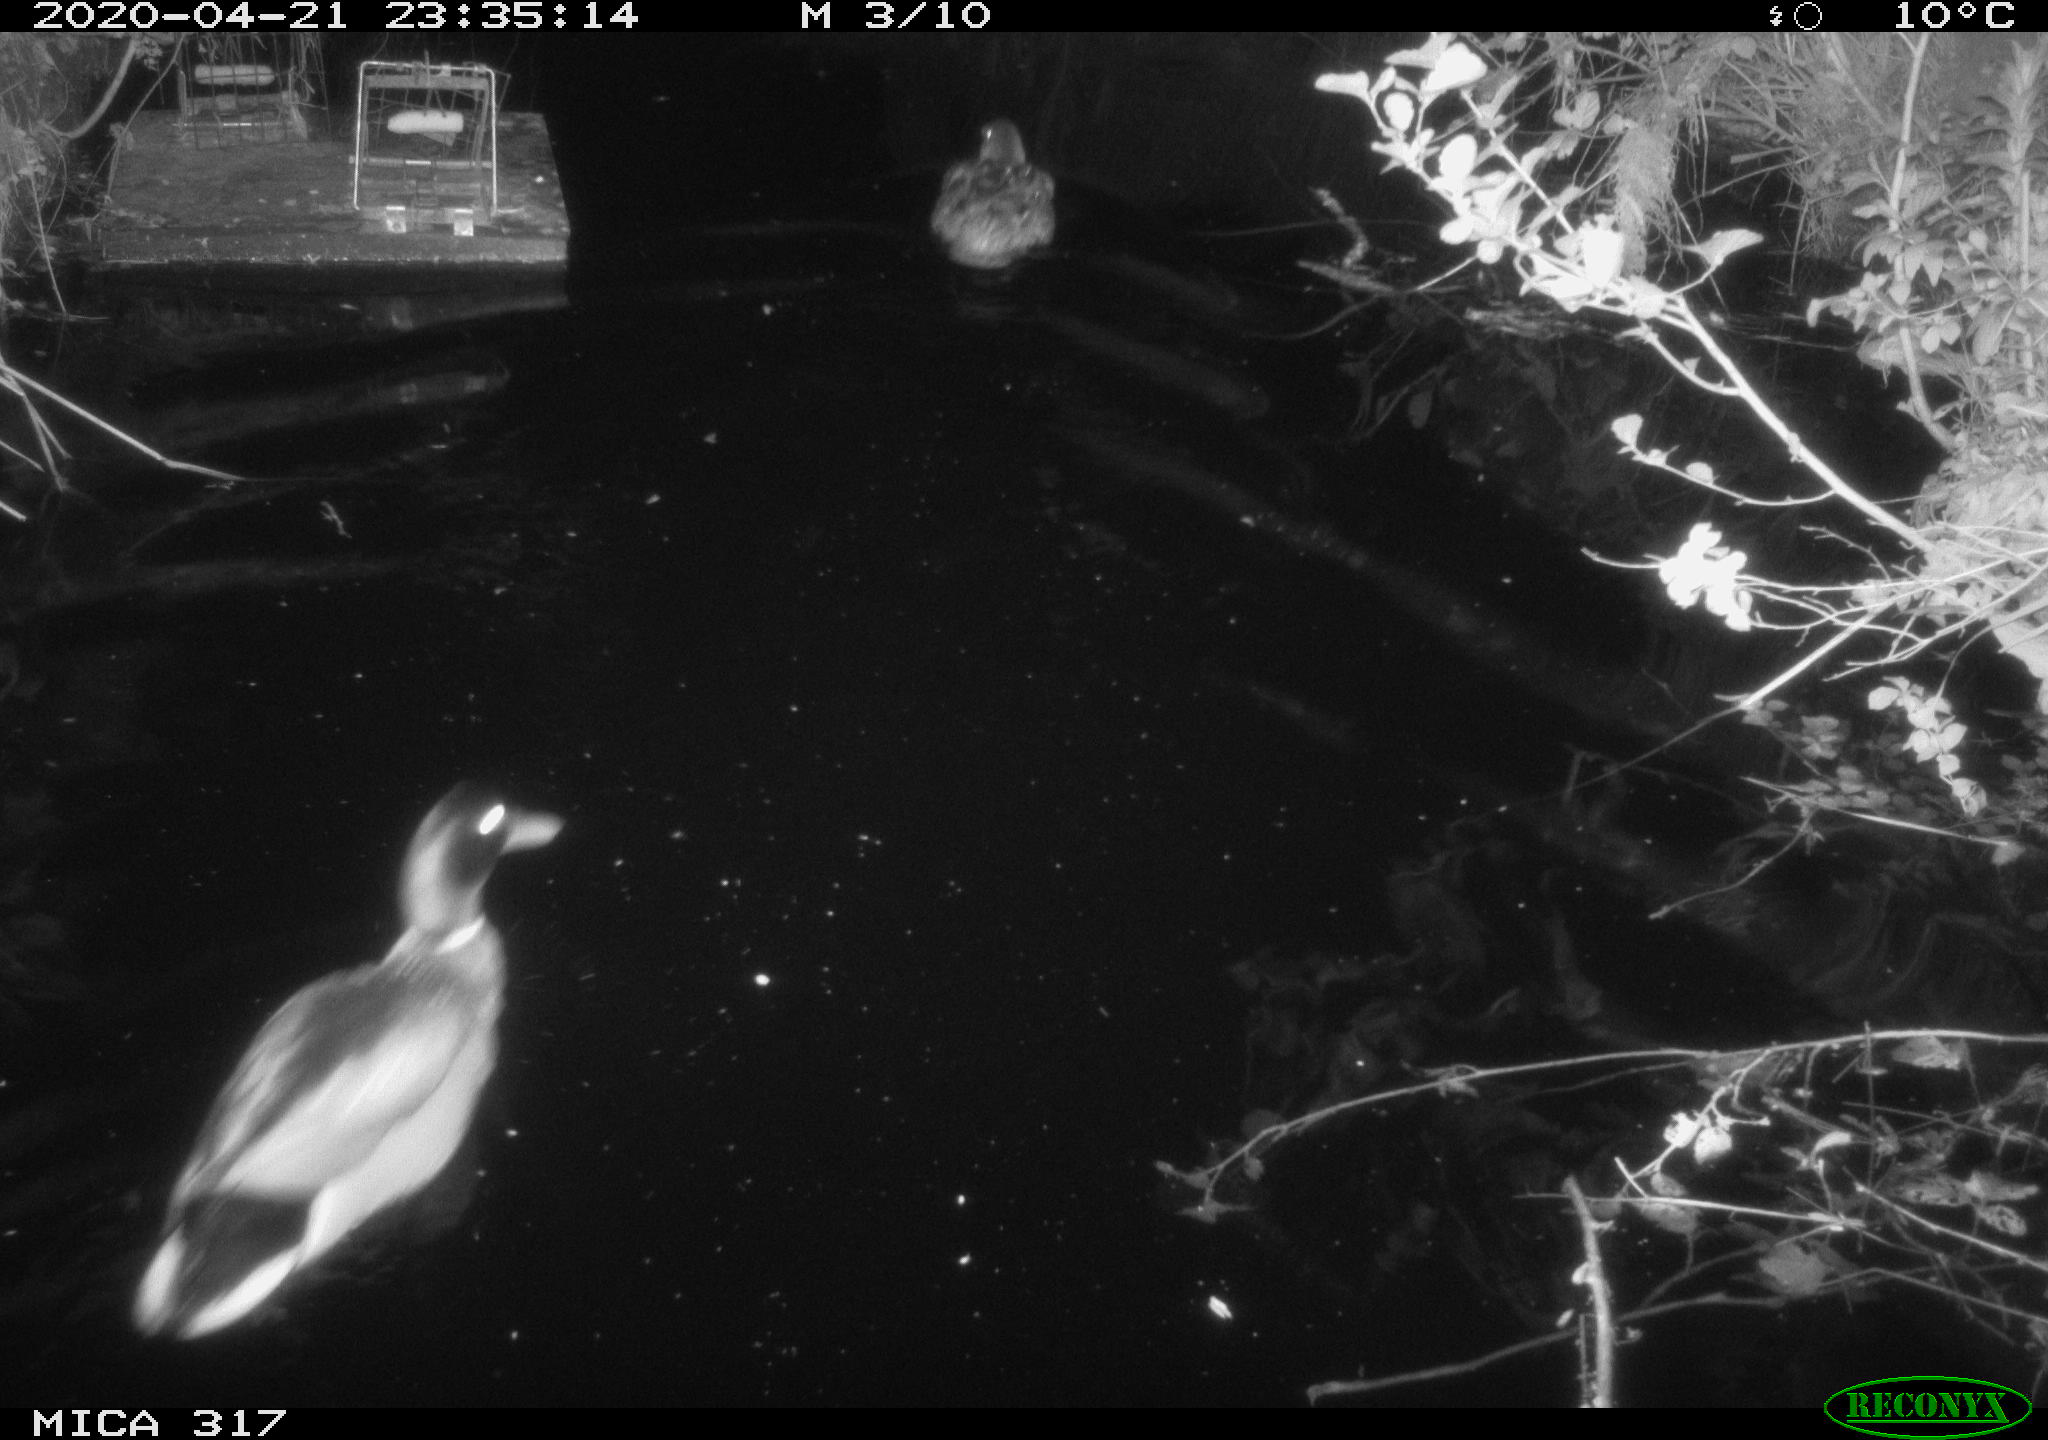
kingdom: Animalia
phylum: Chordata
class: Aves
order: Anseriformes
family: Anatidae
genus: Anas
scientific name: Anas platyrhynchos
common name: Mallard
